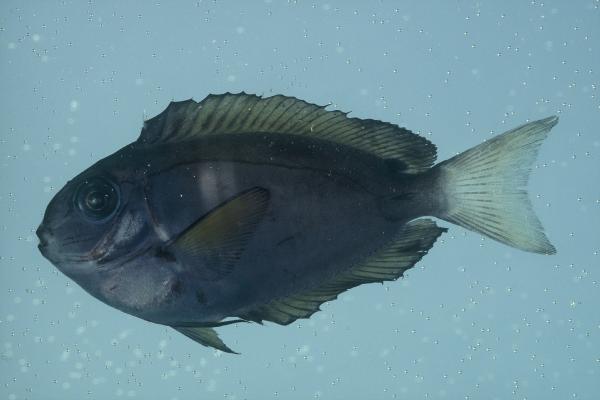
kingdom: Animalia
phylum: Chordata
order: Perciformes
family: Acanthuridae
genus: Acanthurus
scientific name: Acanthurus thompsoni
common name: Chocolate surgeonfish
